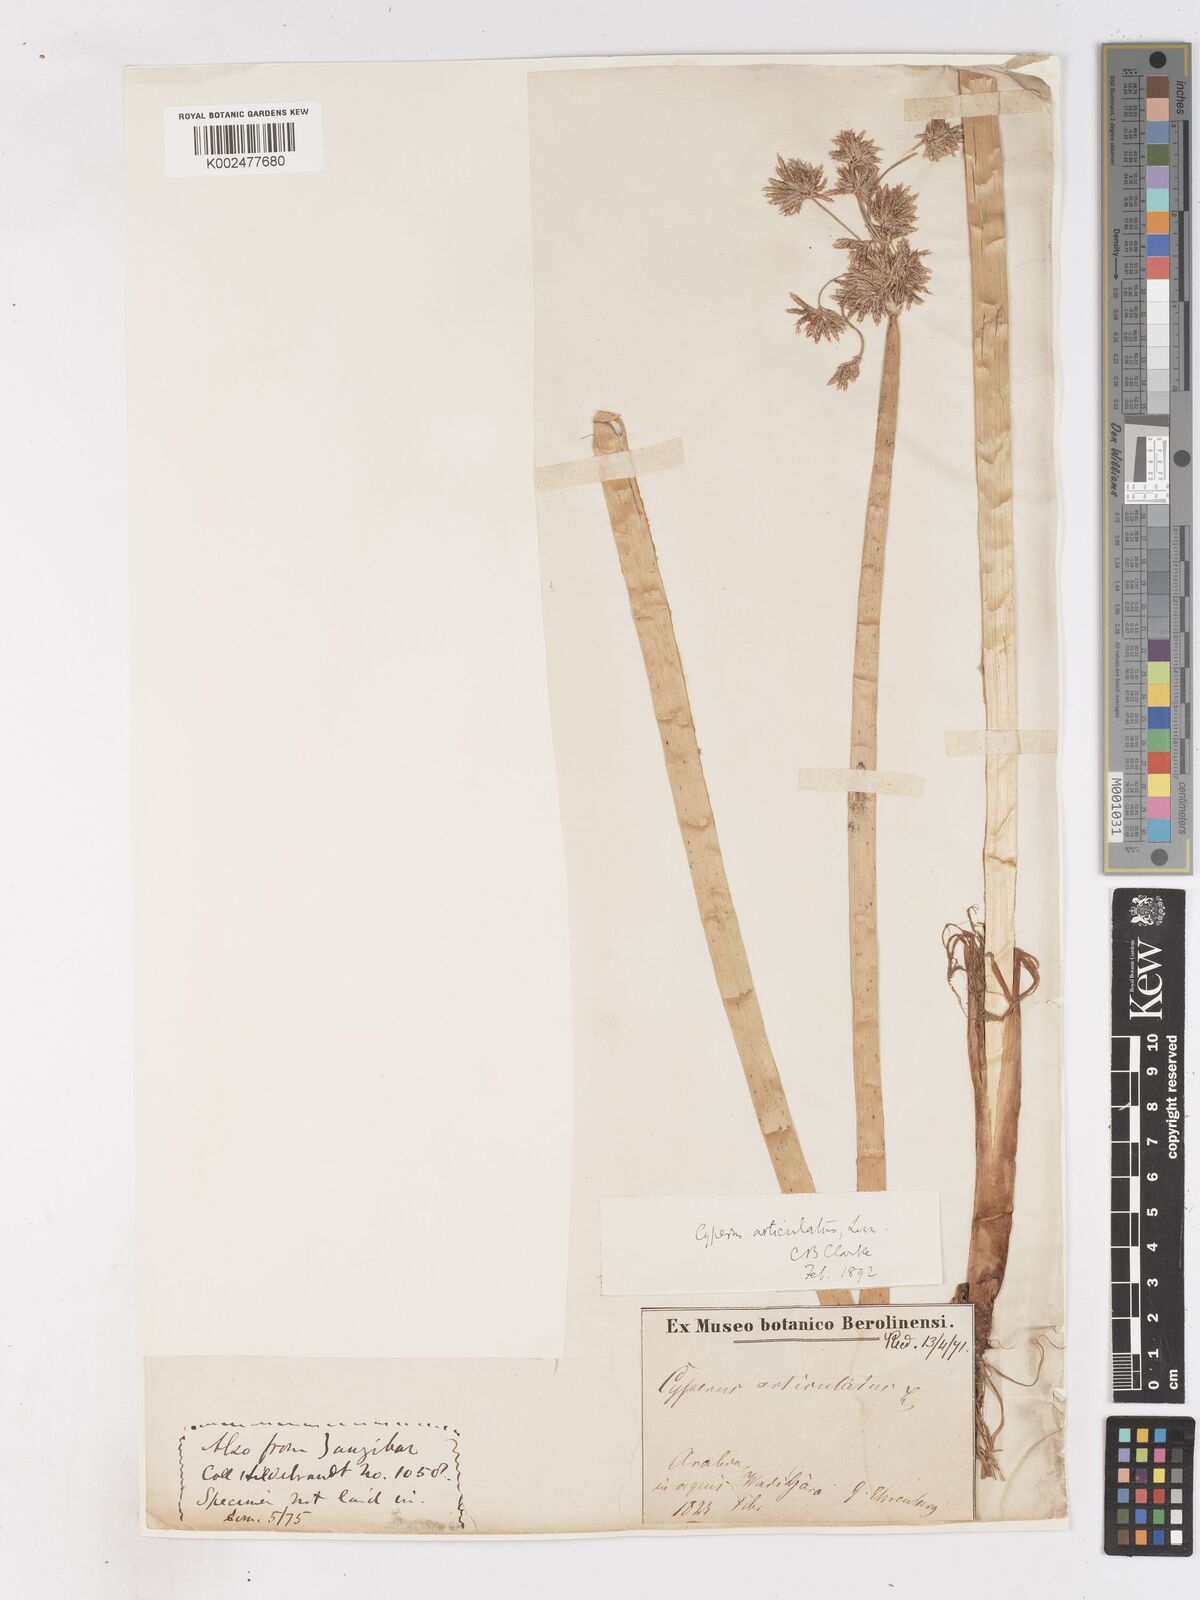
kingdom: Plantae
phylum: Tracheophyta
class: Liliopsida
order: Poales
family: Cyperaceae
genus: Cyperus
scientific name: Cyperus articulatus
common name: Jointed flatsedge
